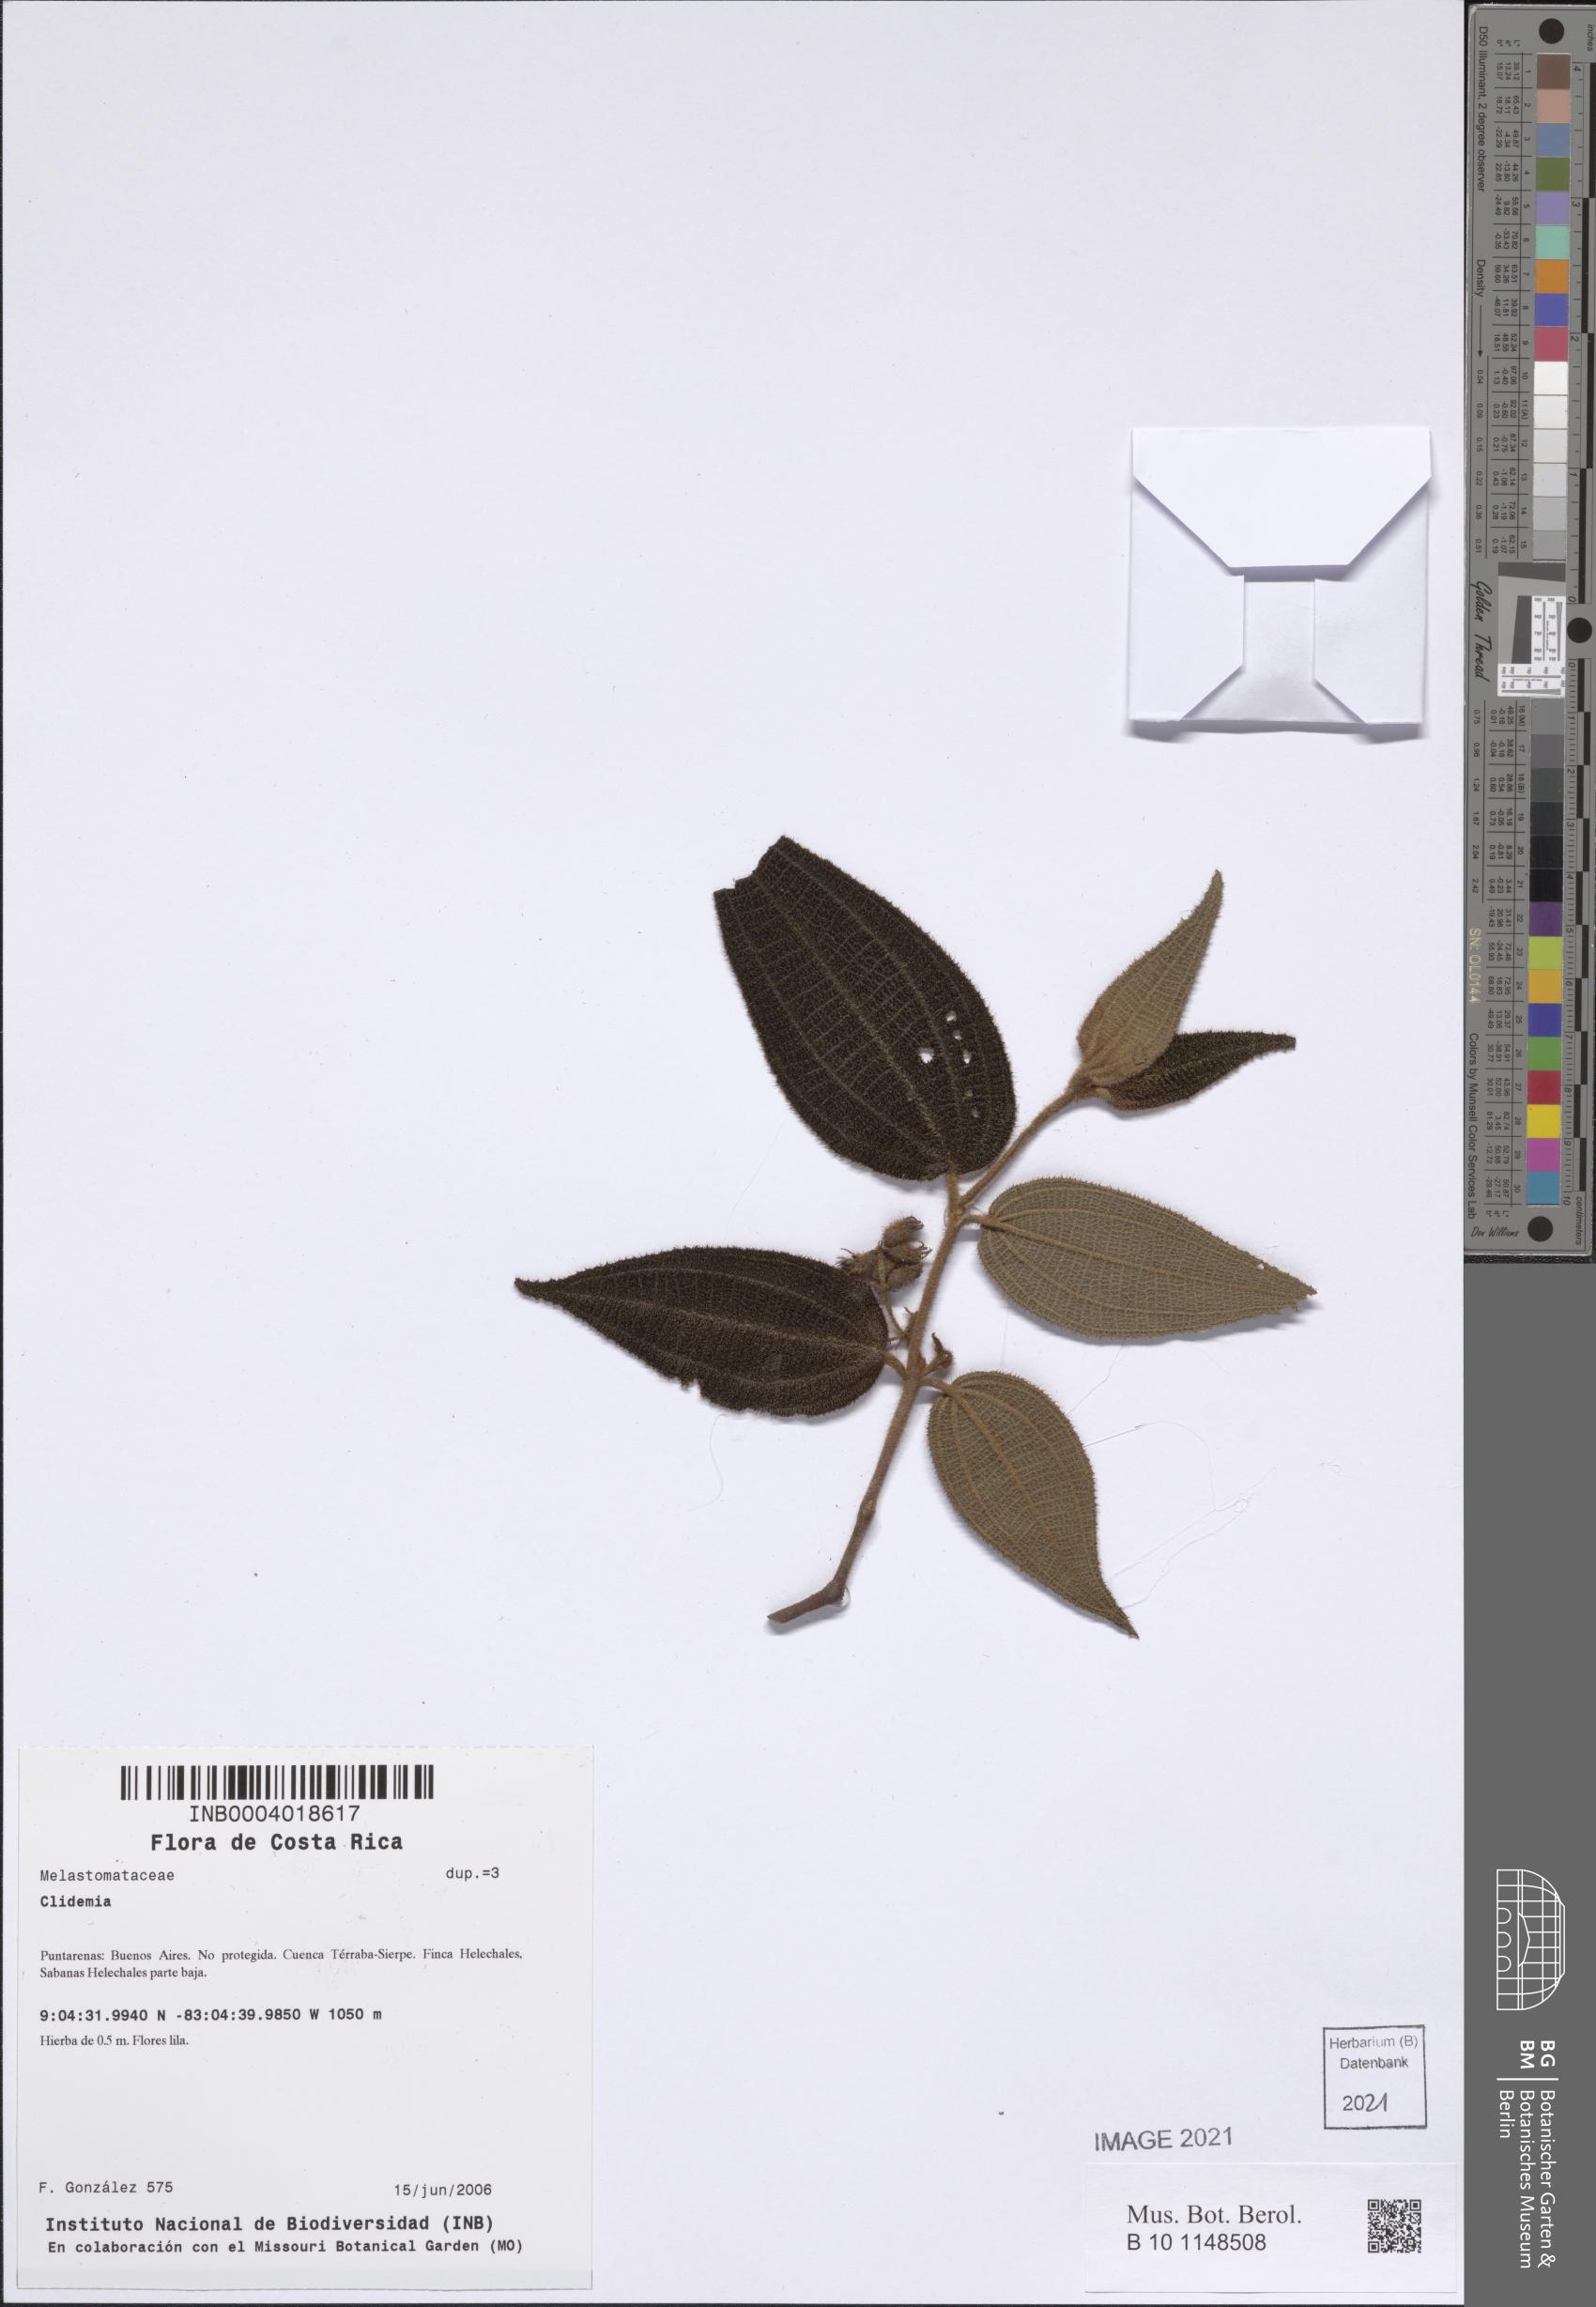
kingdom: Plantae
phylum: Tracheophyta
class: Magnoliopsida
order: Myrtales
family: Melastomataceae
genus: Miconia
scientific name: Miconia
